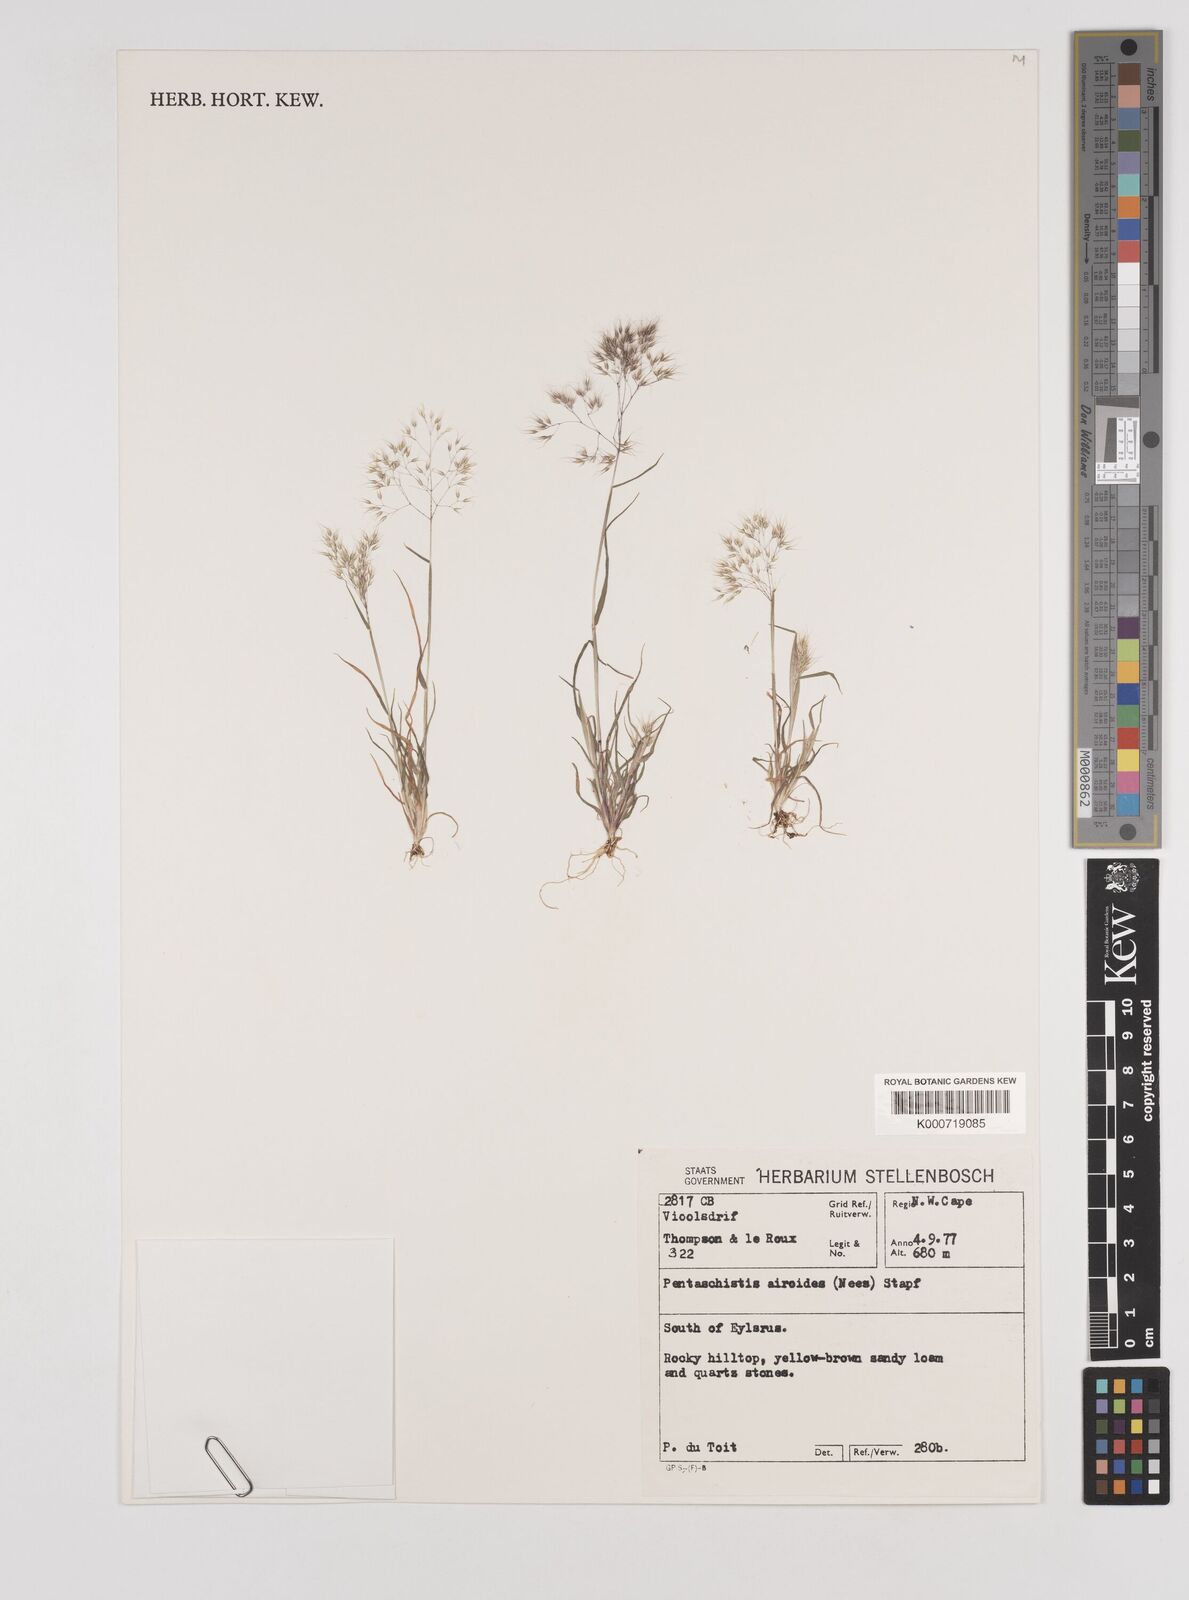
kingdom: Plantae
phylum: Tracheophyta
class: Liliopsida
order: Poales
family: Poaceae
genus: Pentameris
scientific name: Pentameris airoides
